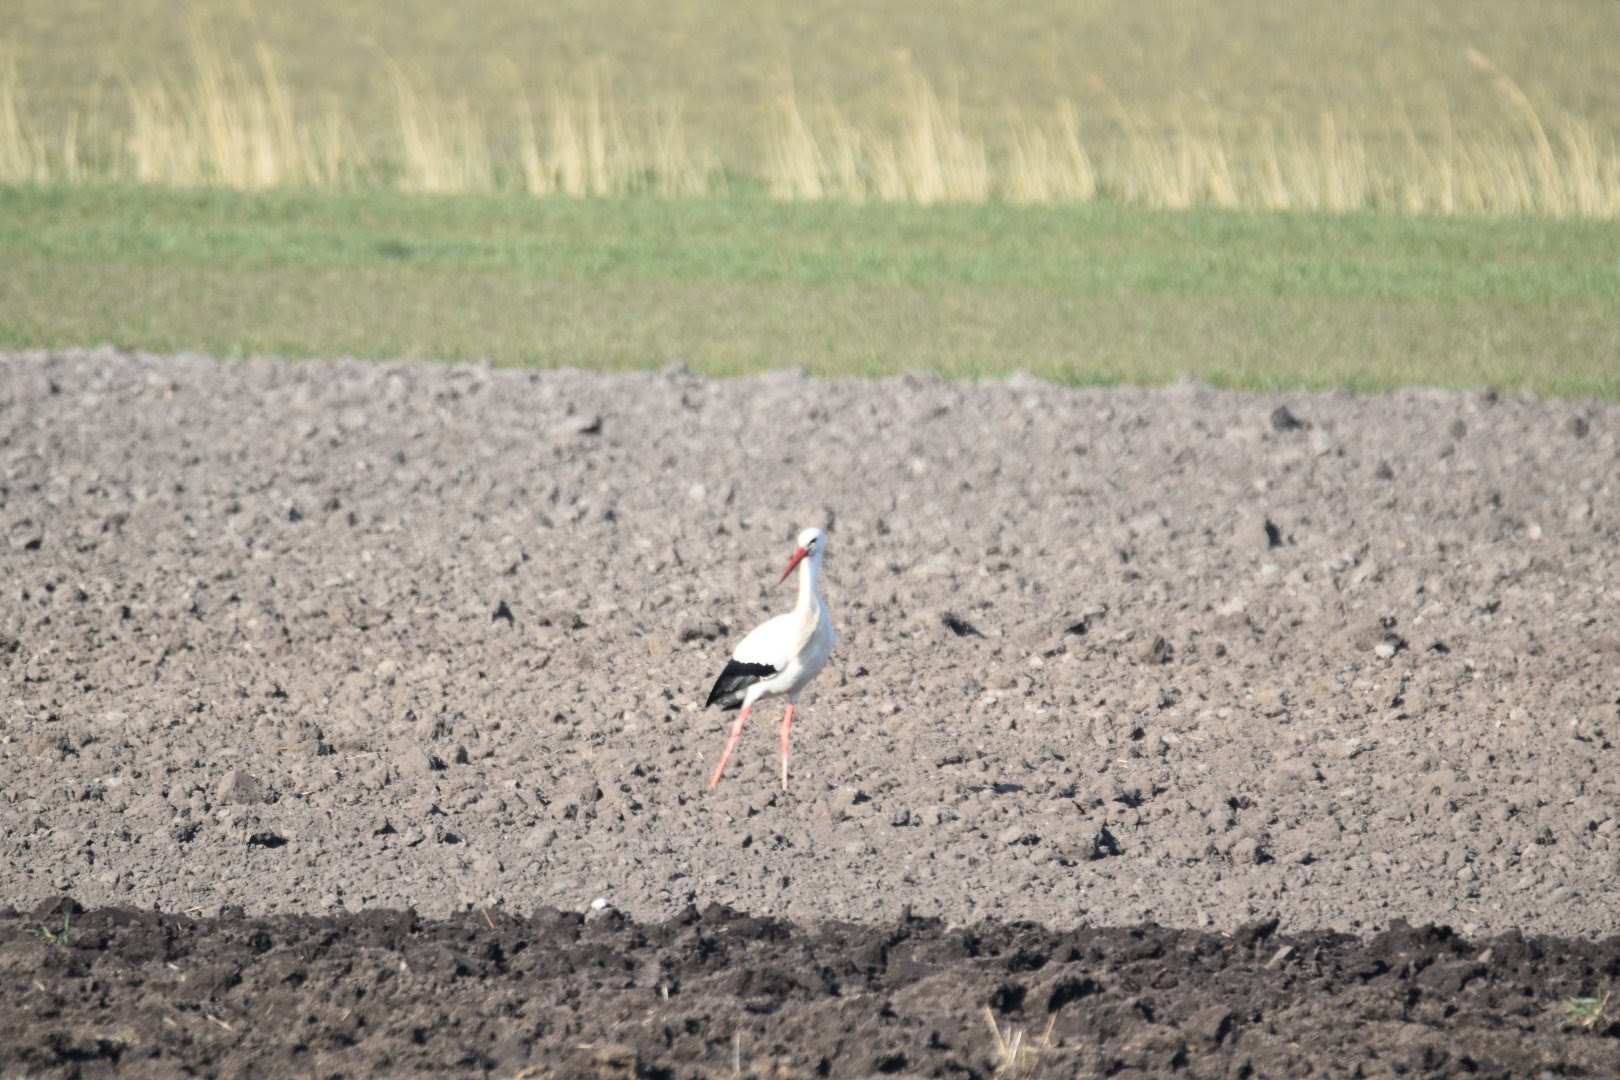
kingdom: Animalia
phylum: Chordata
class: Aves
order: Ciconiiformes
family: Ciconiidae
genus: Ciconia
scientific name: Ciconia ciconia
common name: Hvid stork
